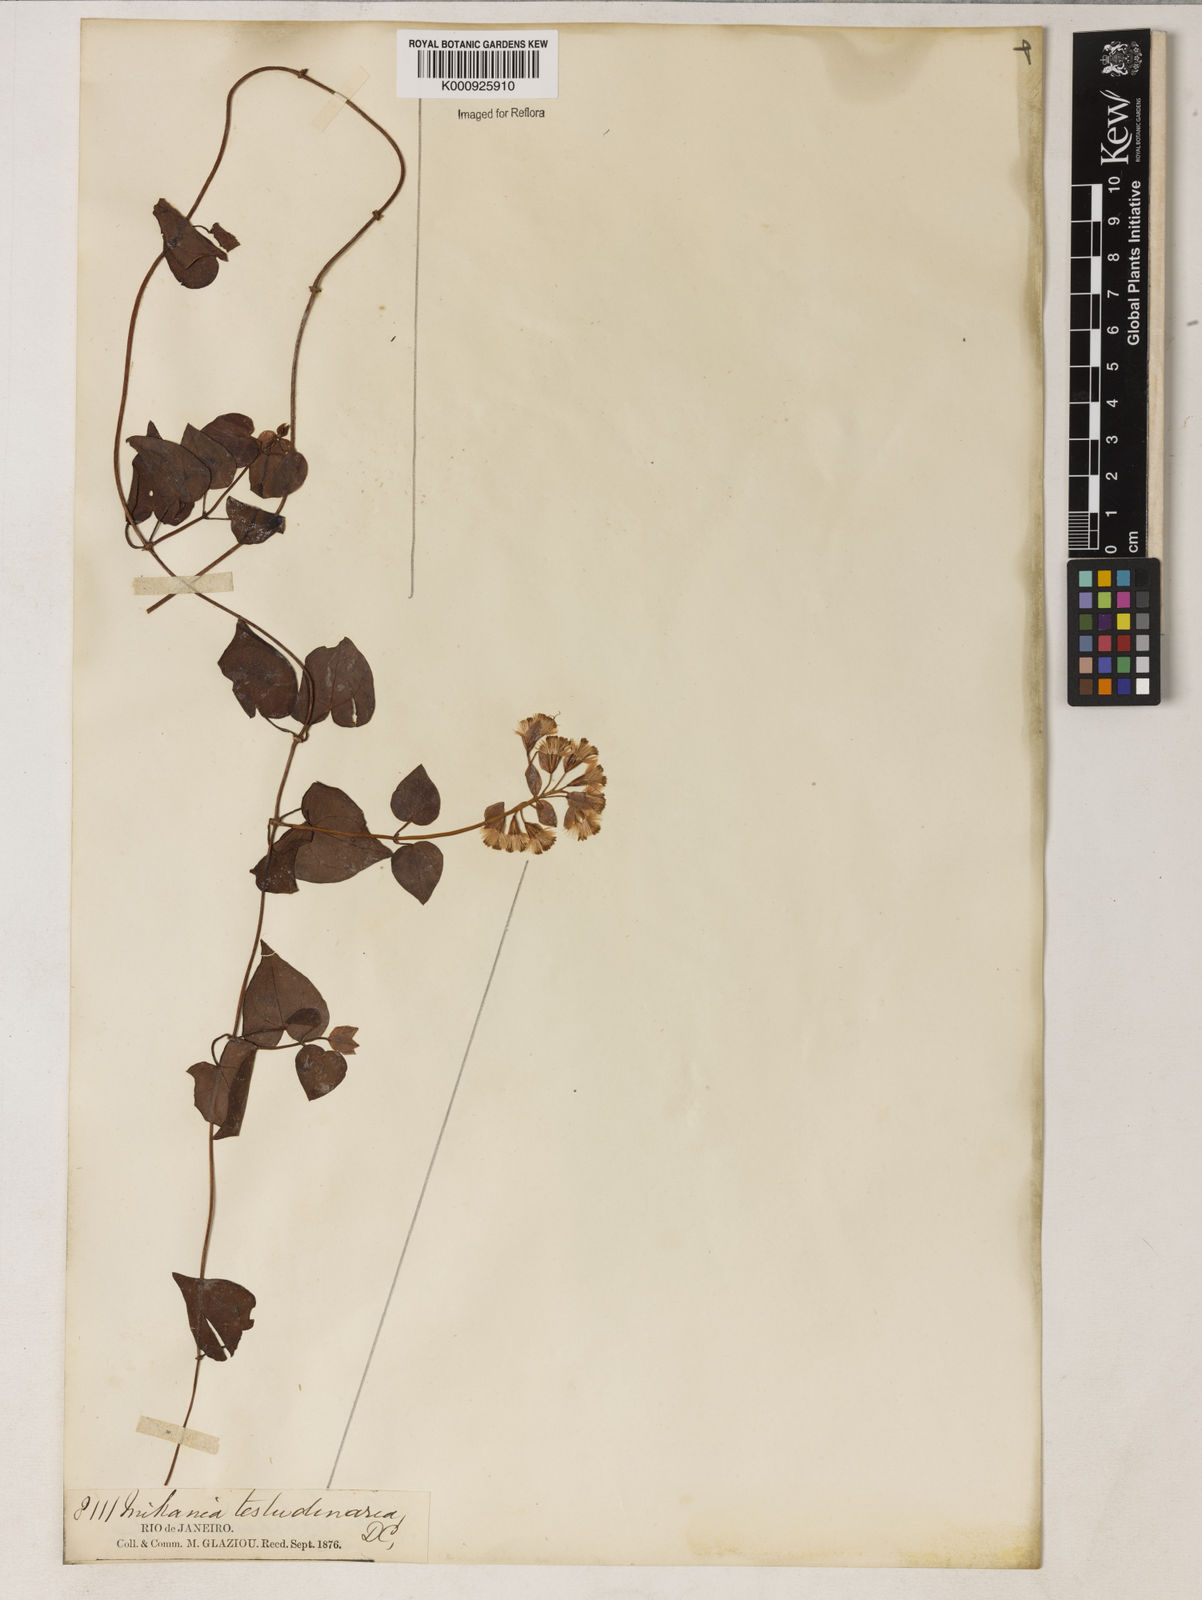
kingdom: Plantae
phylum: Tracheophyta
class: Magnoliopsida
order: Asterales
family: Asteraceae
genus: Mikania
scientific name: Mikania testudinaria
